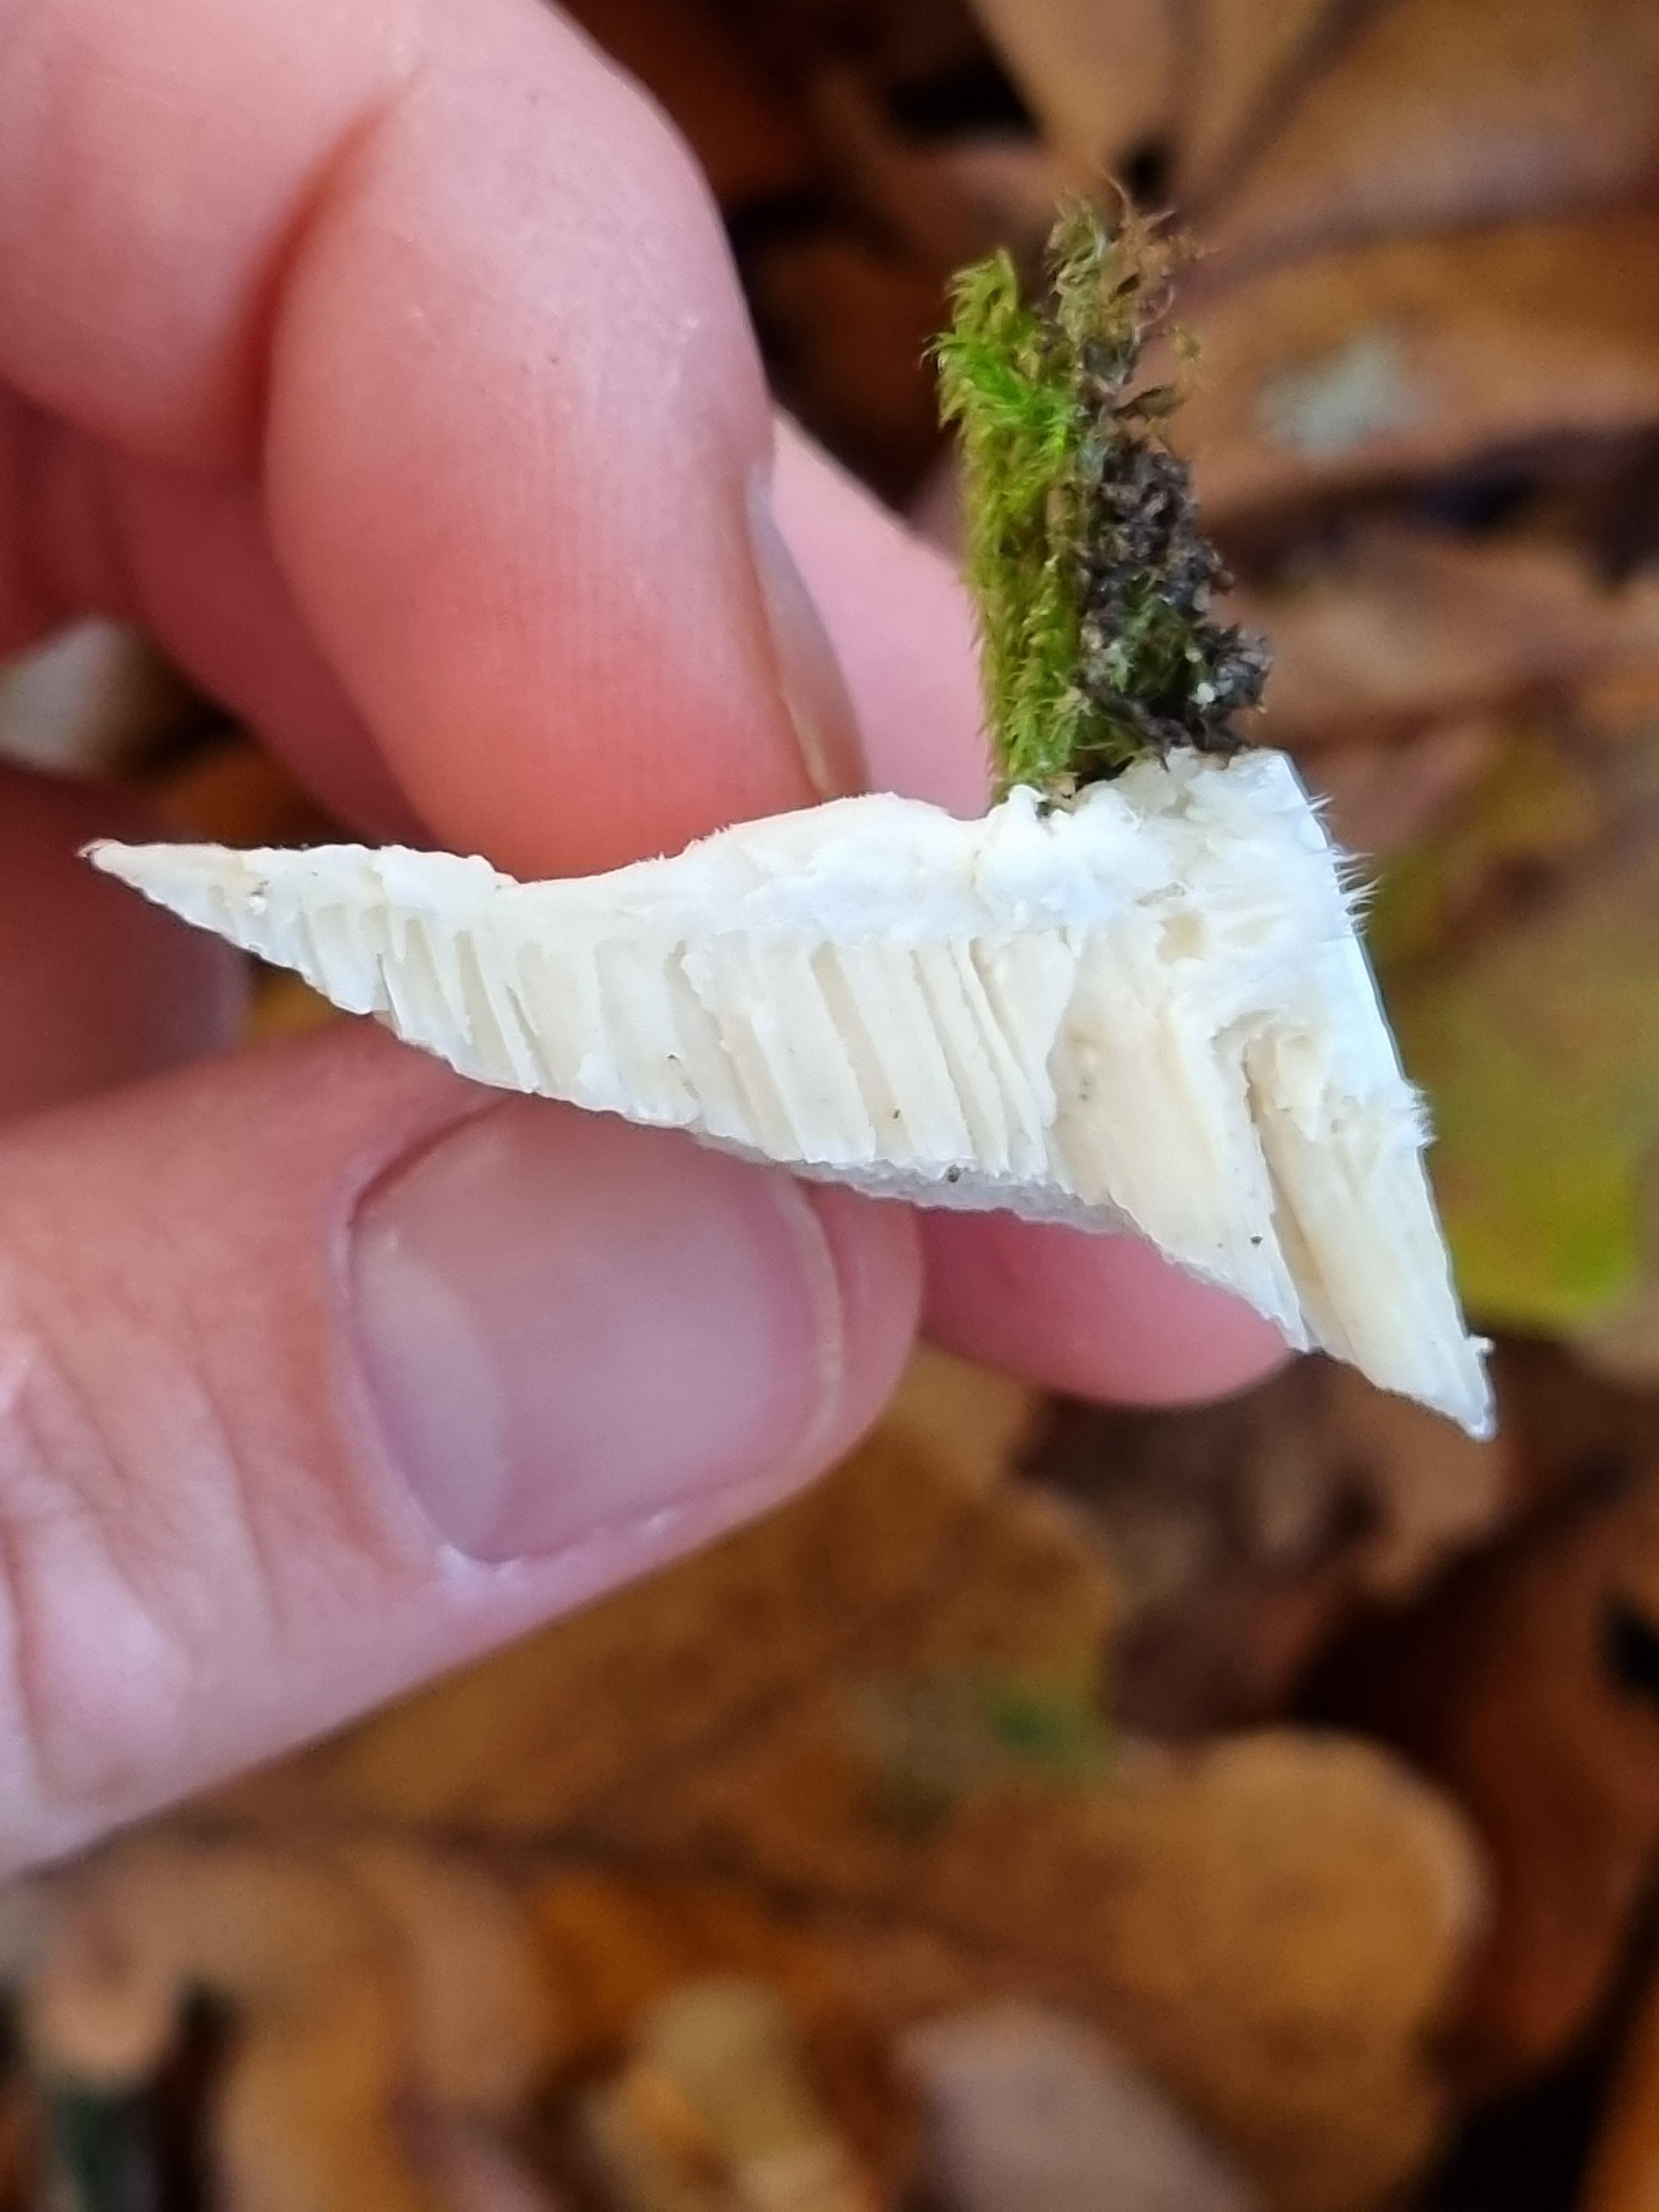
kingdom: Fungi
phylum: Basidiomycota
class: Agaricomycetes
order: Polyporales
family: Polyporaceae
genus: Trametes
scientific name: Trametes gibbosa
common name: puklet læderporesvamp
